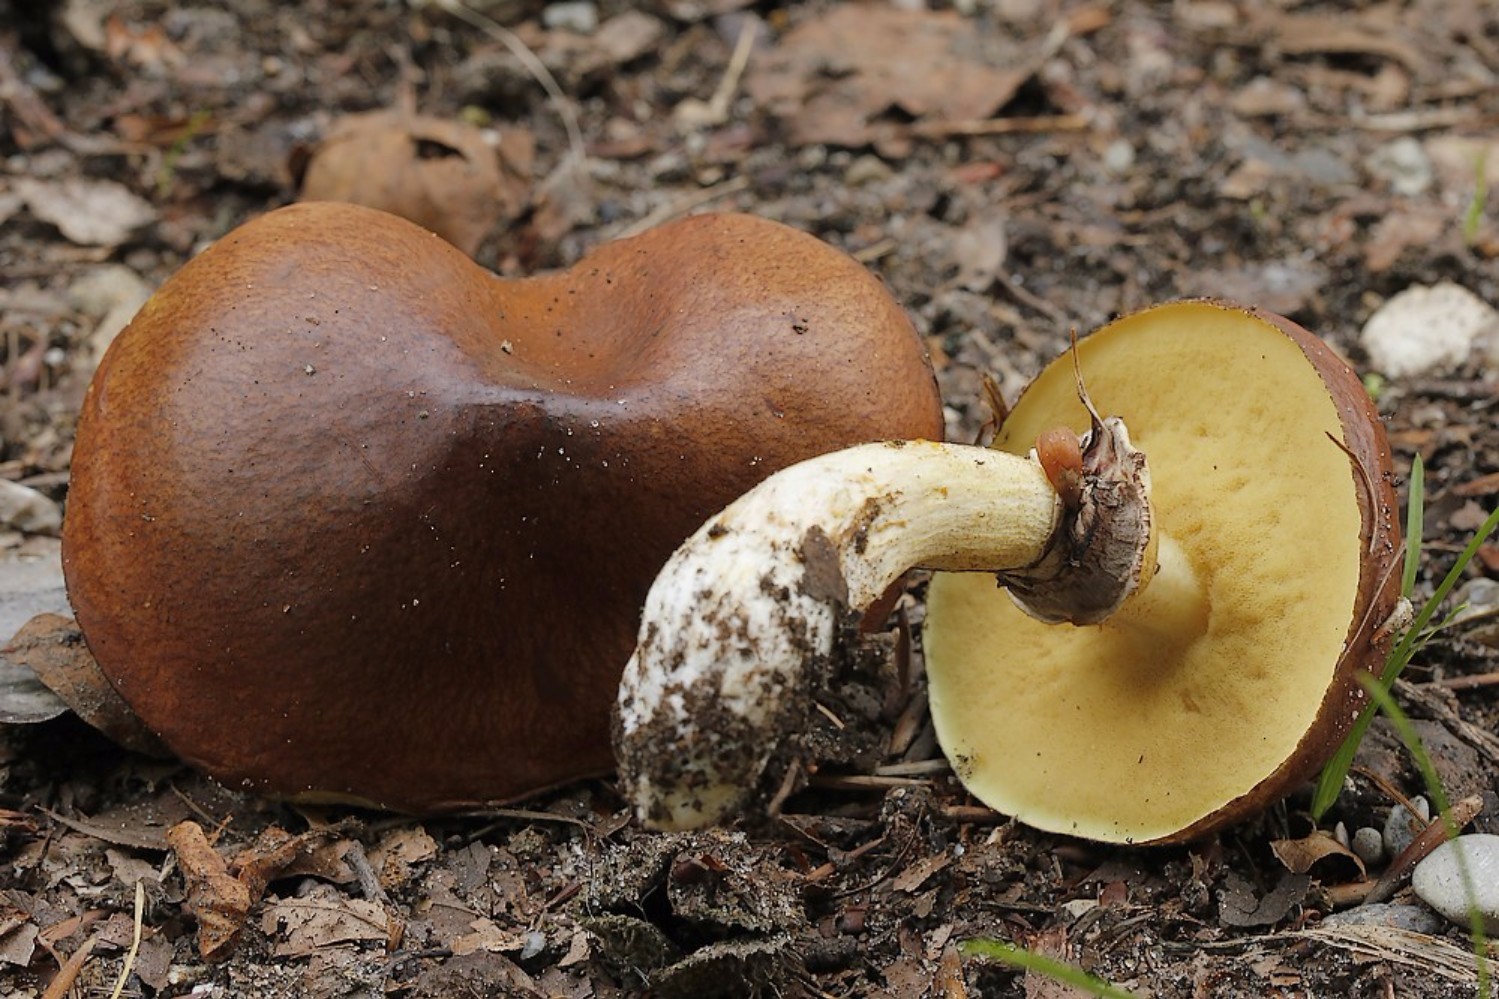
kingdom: Fungi
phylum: Basidiomycota
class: Agaricomycetes
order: Boletales
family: Suillaceae
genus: Suillus
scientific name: Suillus luteus
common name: brungul slimrørhat
